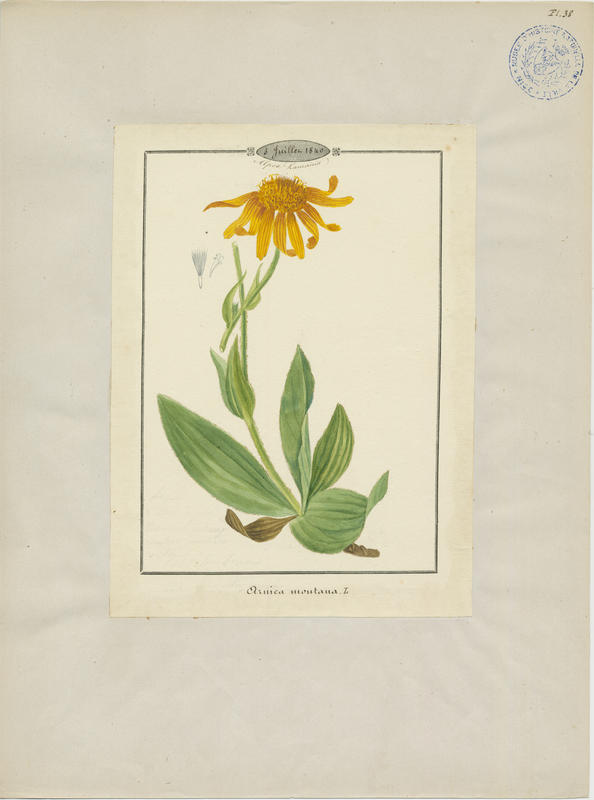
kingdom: Plantae
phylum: Tracheophyta
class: Magnoliopsida
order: Asterales
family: Asteraceae
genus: Arnica
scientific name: Arnica montana
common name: Leopard's bane
